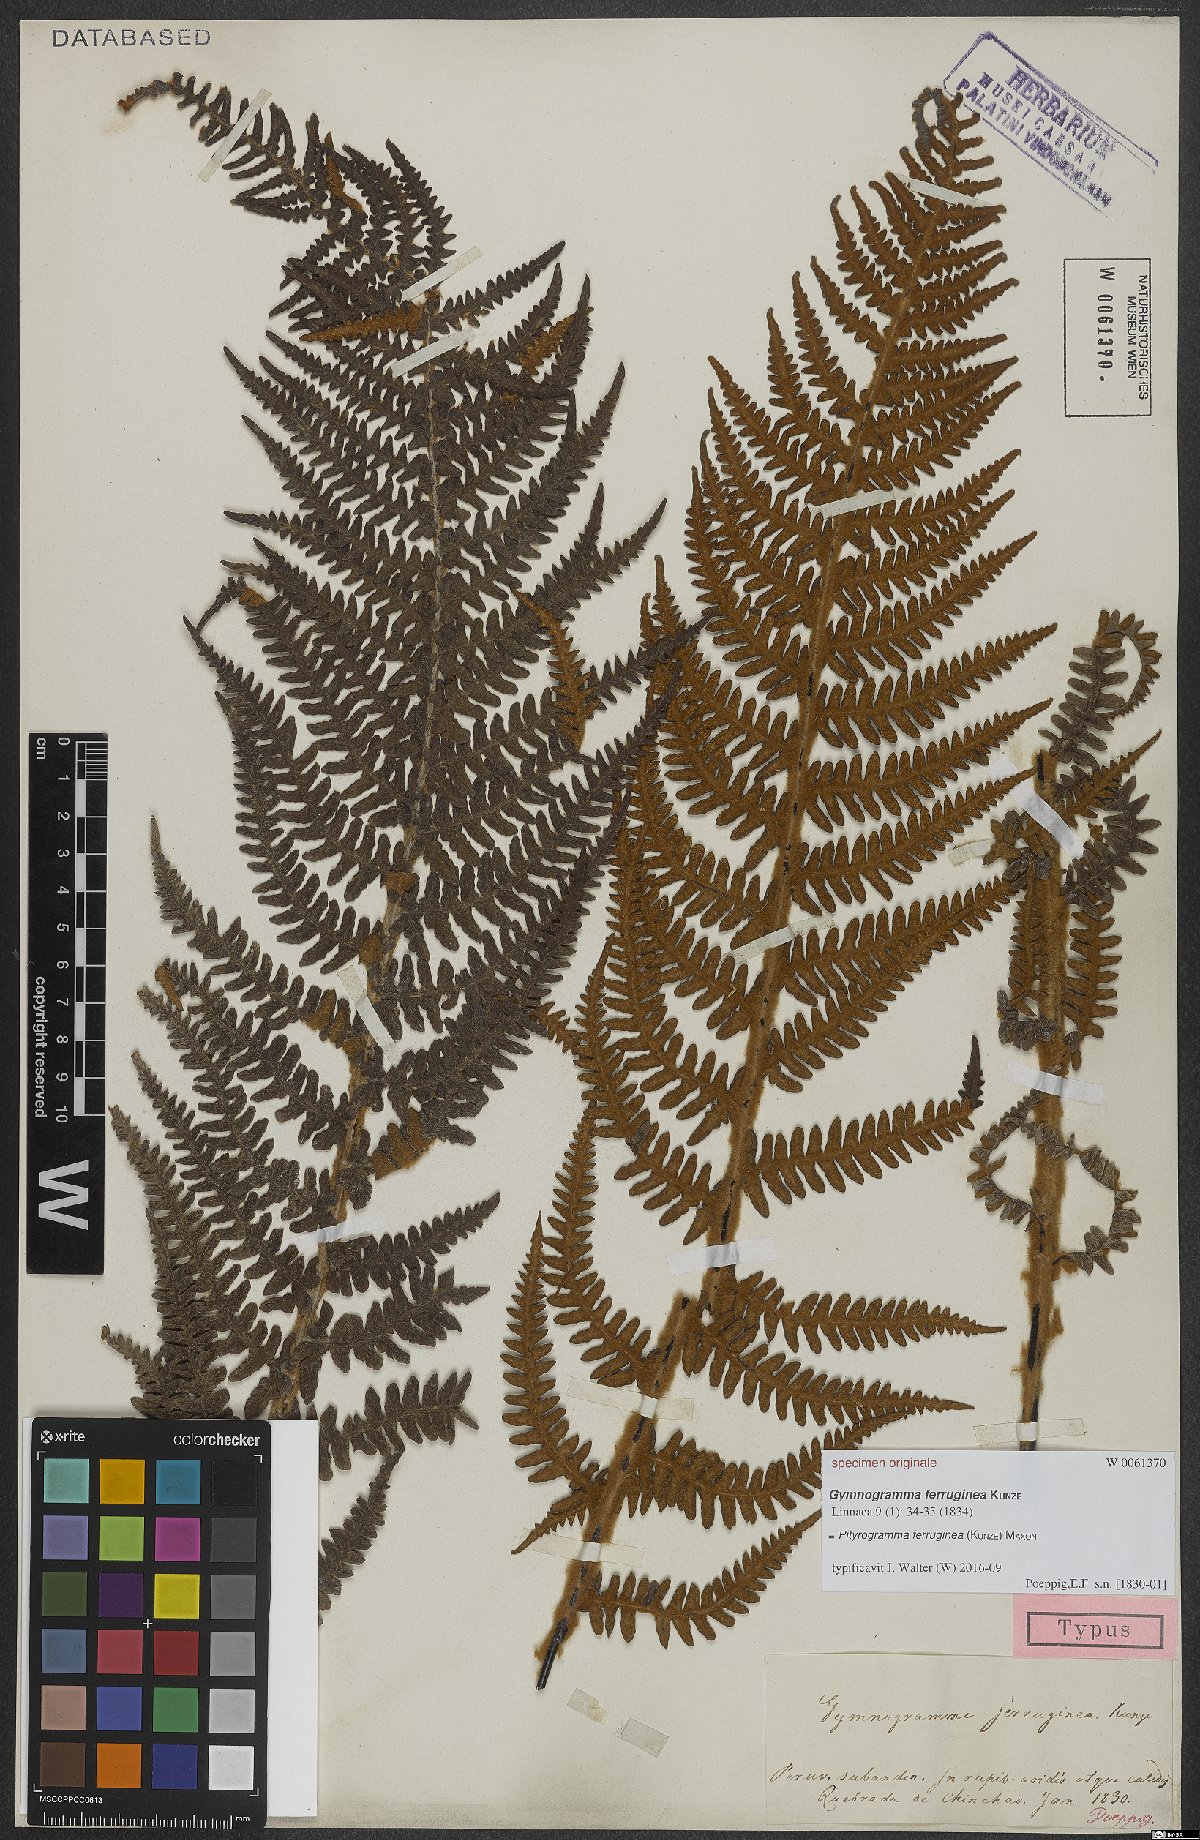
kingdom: Plantae
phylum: Tracheophyta
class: Polypodiopsida
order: Polypodiales
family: Pteridaceae
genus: Pityrogramma
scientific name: Pityrogramma ferruginea
